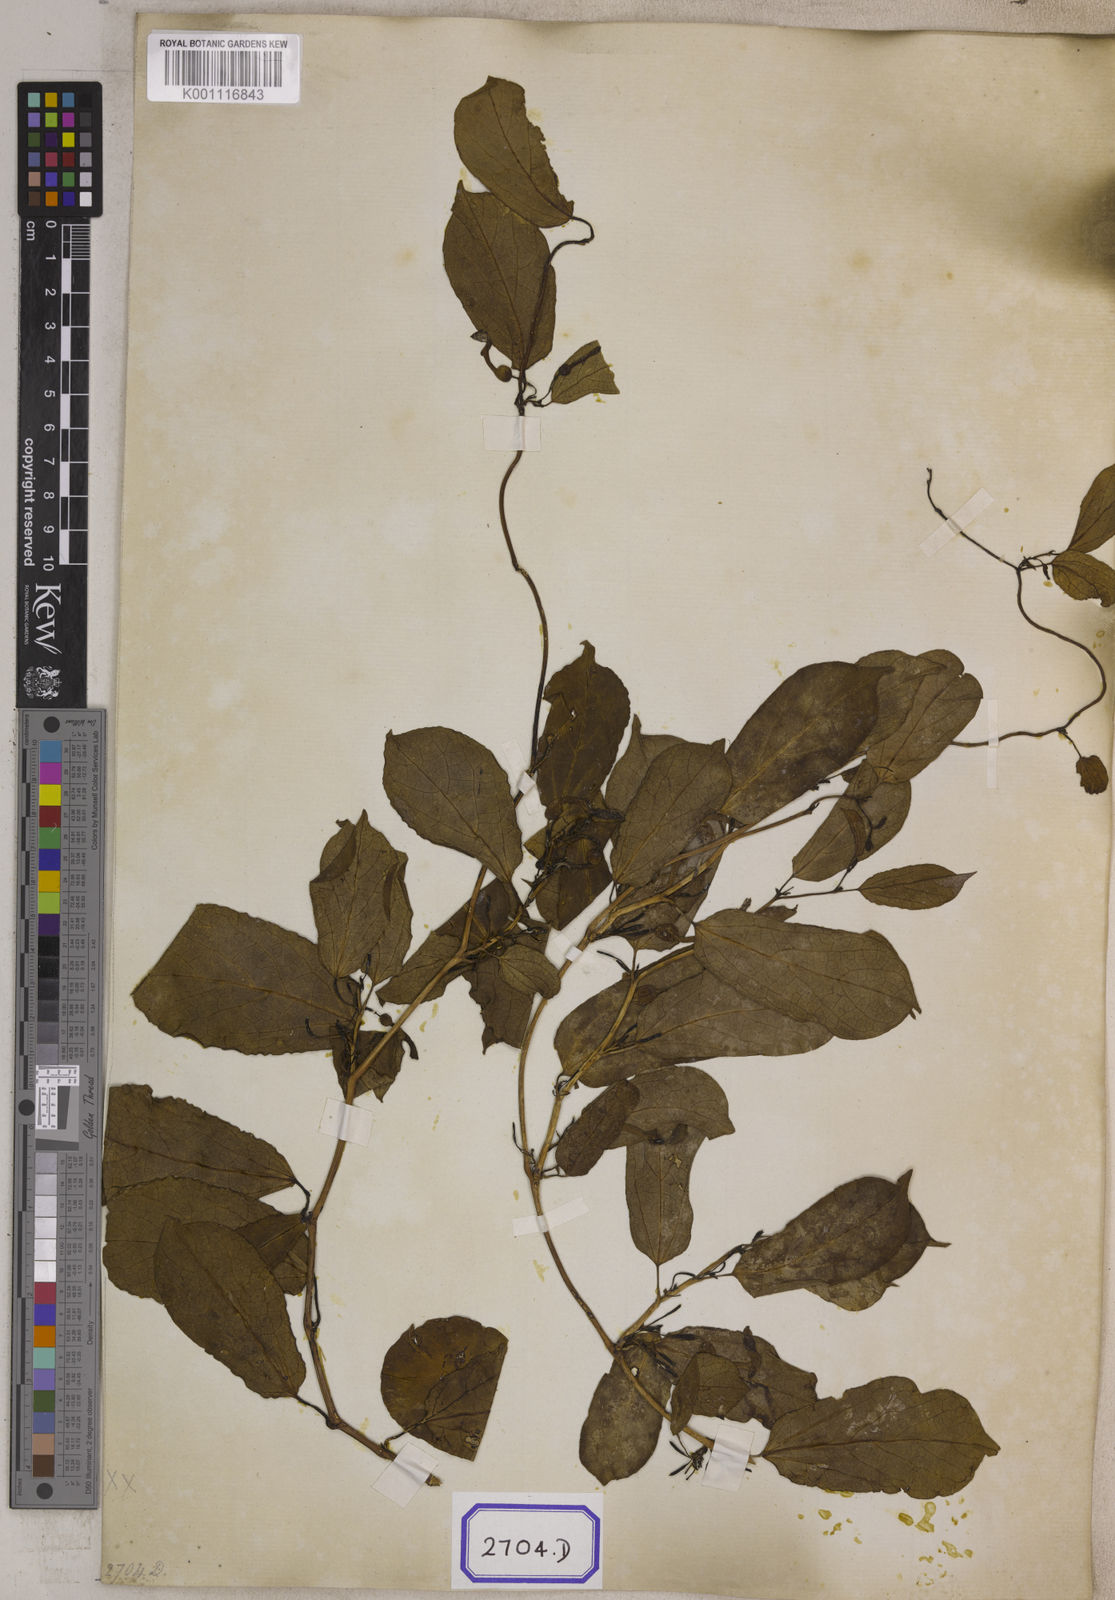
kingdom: Plantae
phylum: Tracheophyta
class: Magnoliopsida
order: Piperales
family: Aristolochiaceae
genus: Aristolochia
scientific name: Aristolochia indica
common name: Indian birthwort
